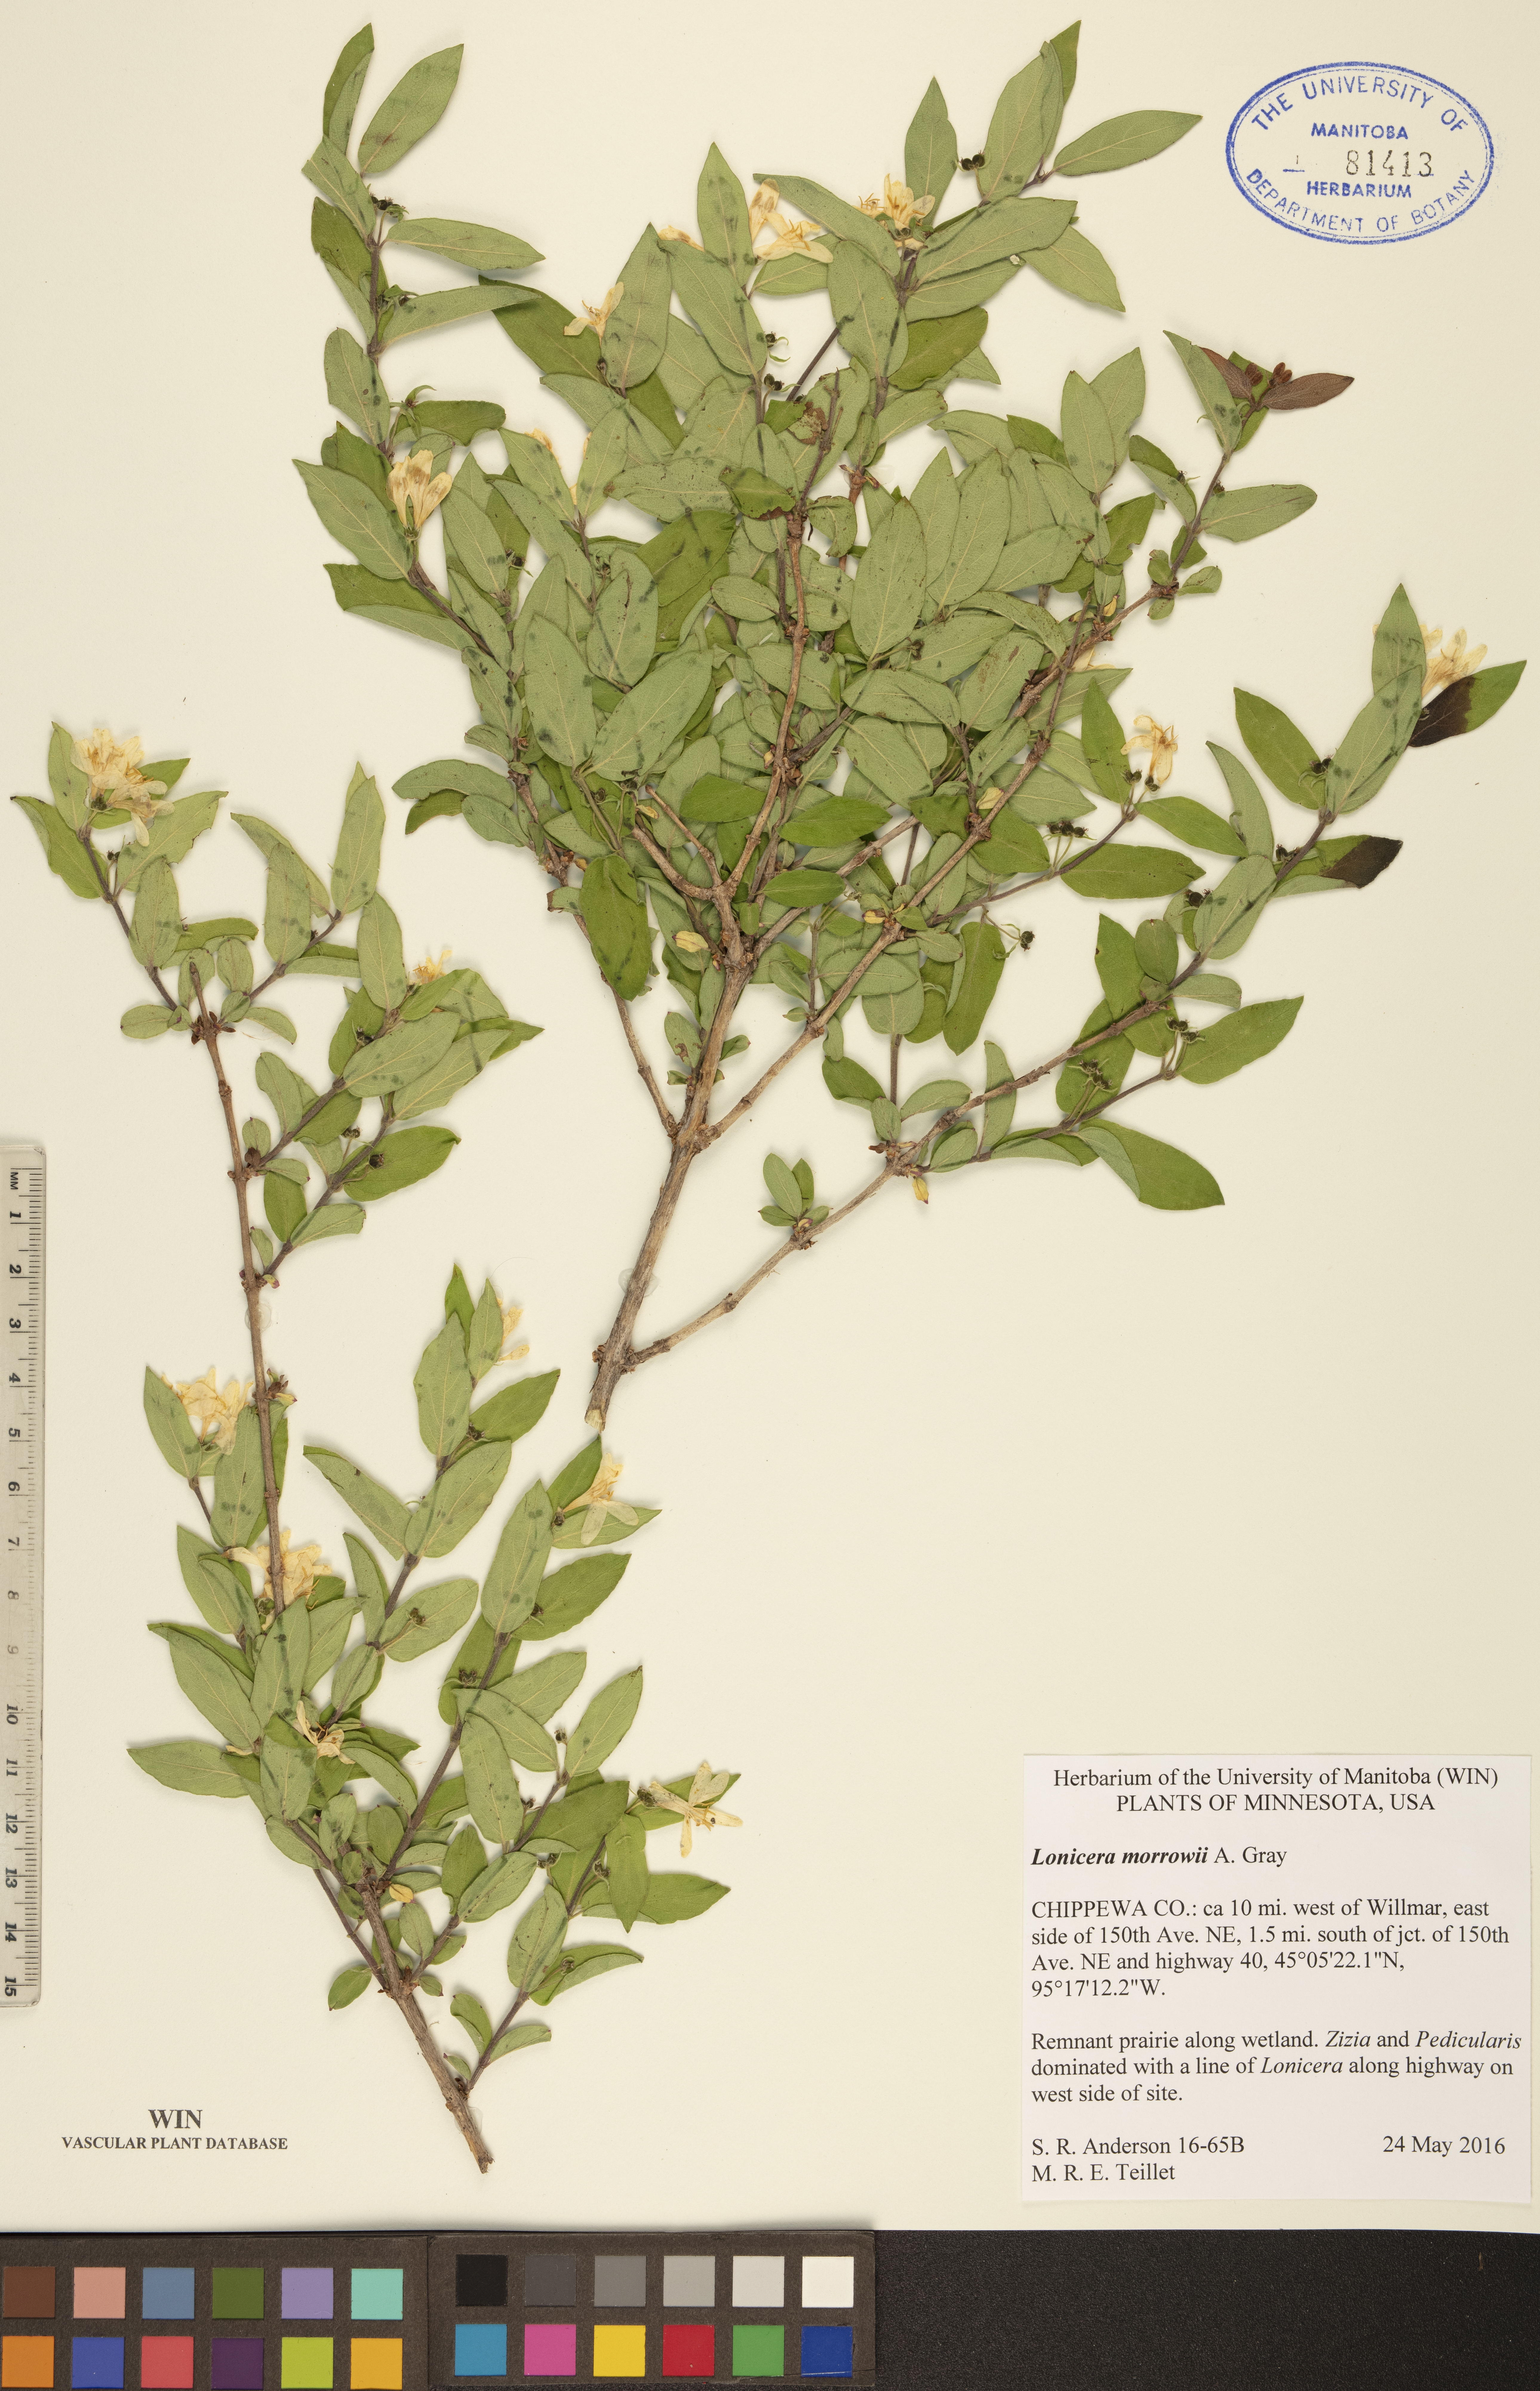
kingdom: Plantae
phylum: Tracheophyta
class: Magnoliopsida
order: Dipsacales
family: Caprifoliaceae
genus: Lonicera
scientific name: Lonicera morrowii
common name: Morrow's honeysuckle
